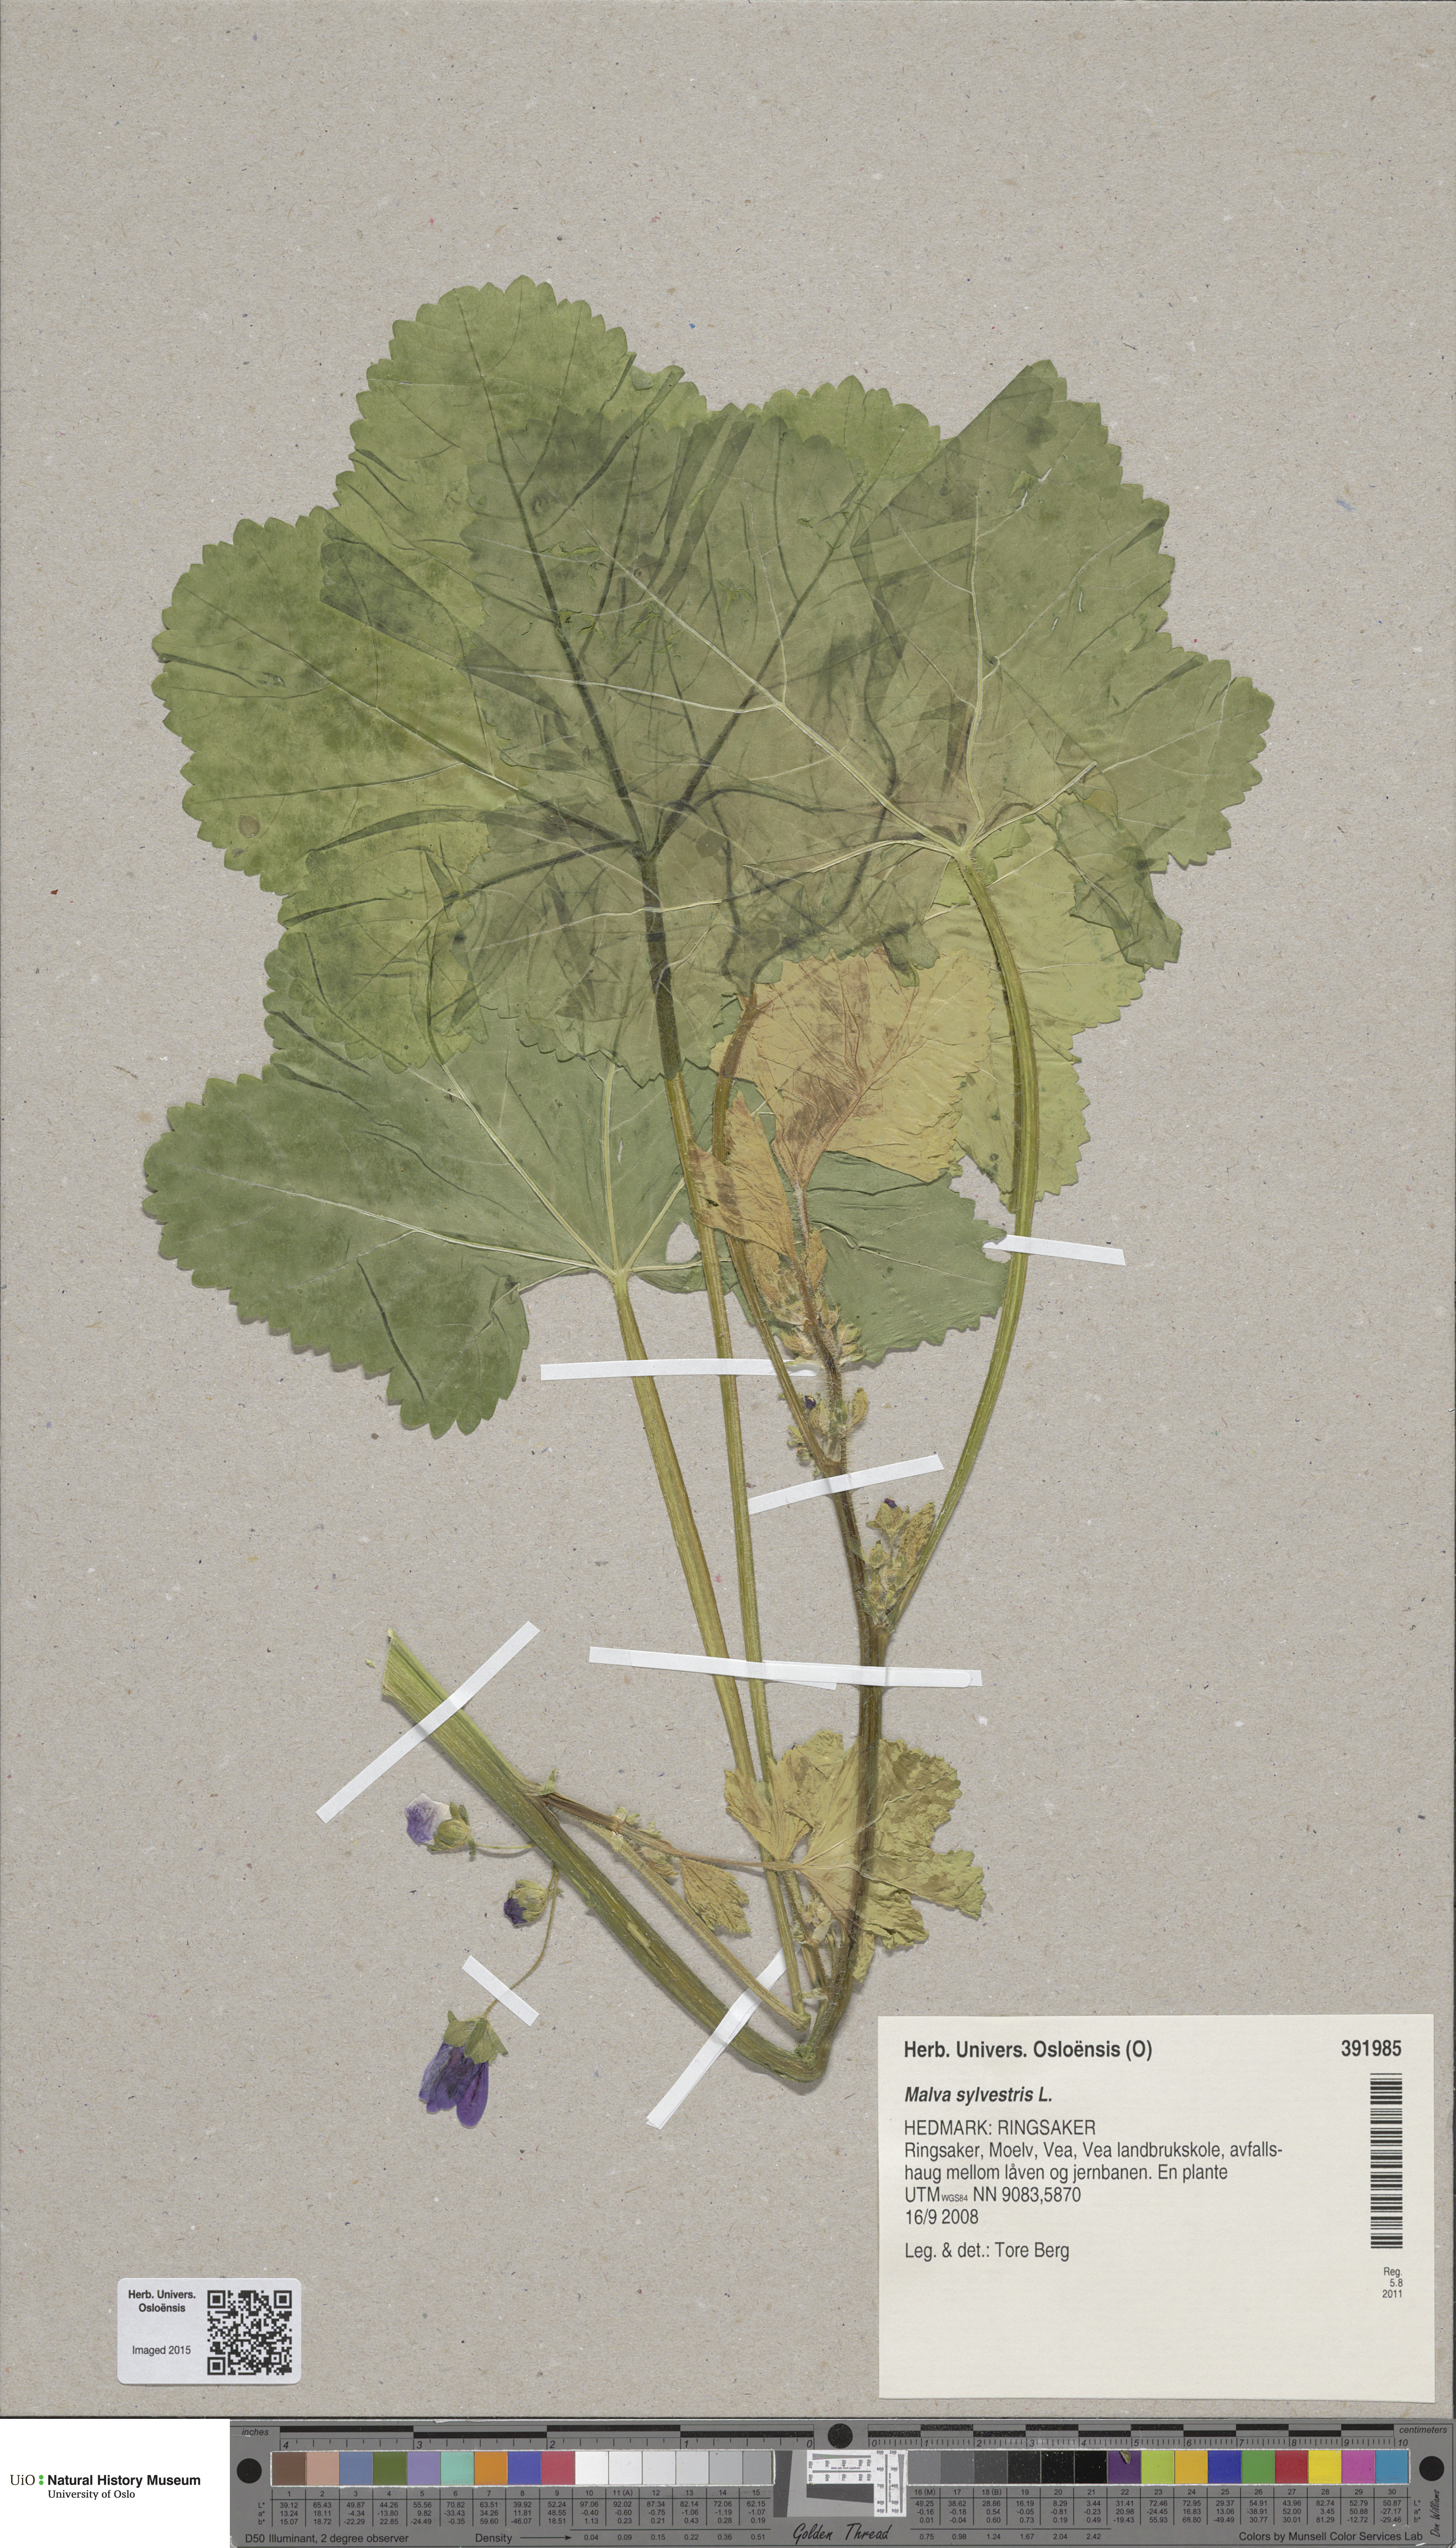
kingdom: Plantae
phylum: Tracheophyta
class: Magnoliopsida
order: Malvales
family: Malvaceae
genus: Malva
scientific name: Malva sylvestris
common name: Common mallow
